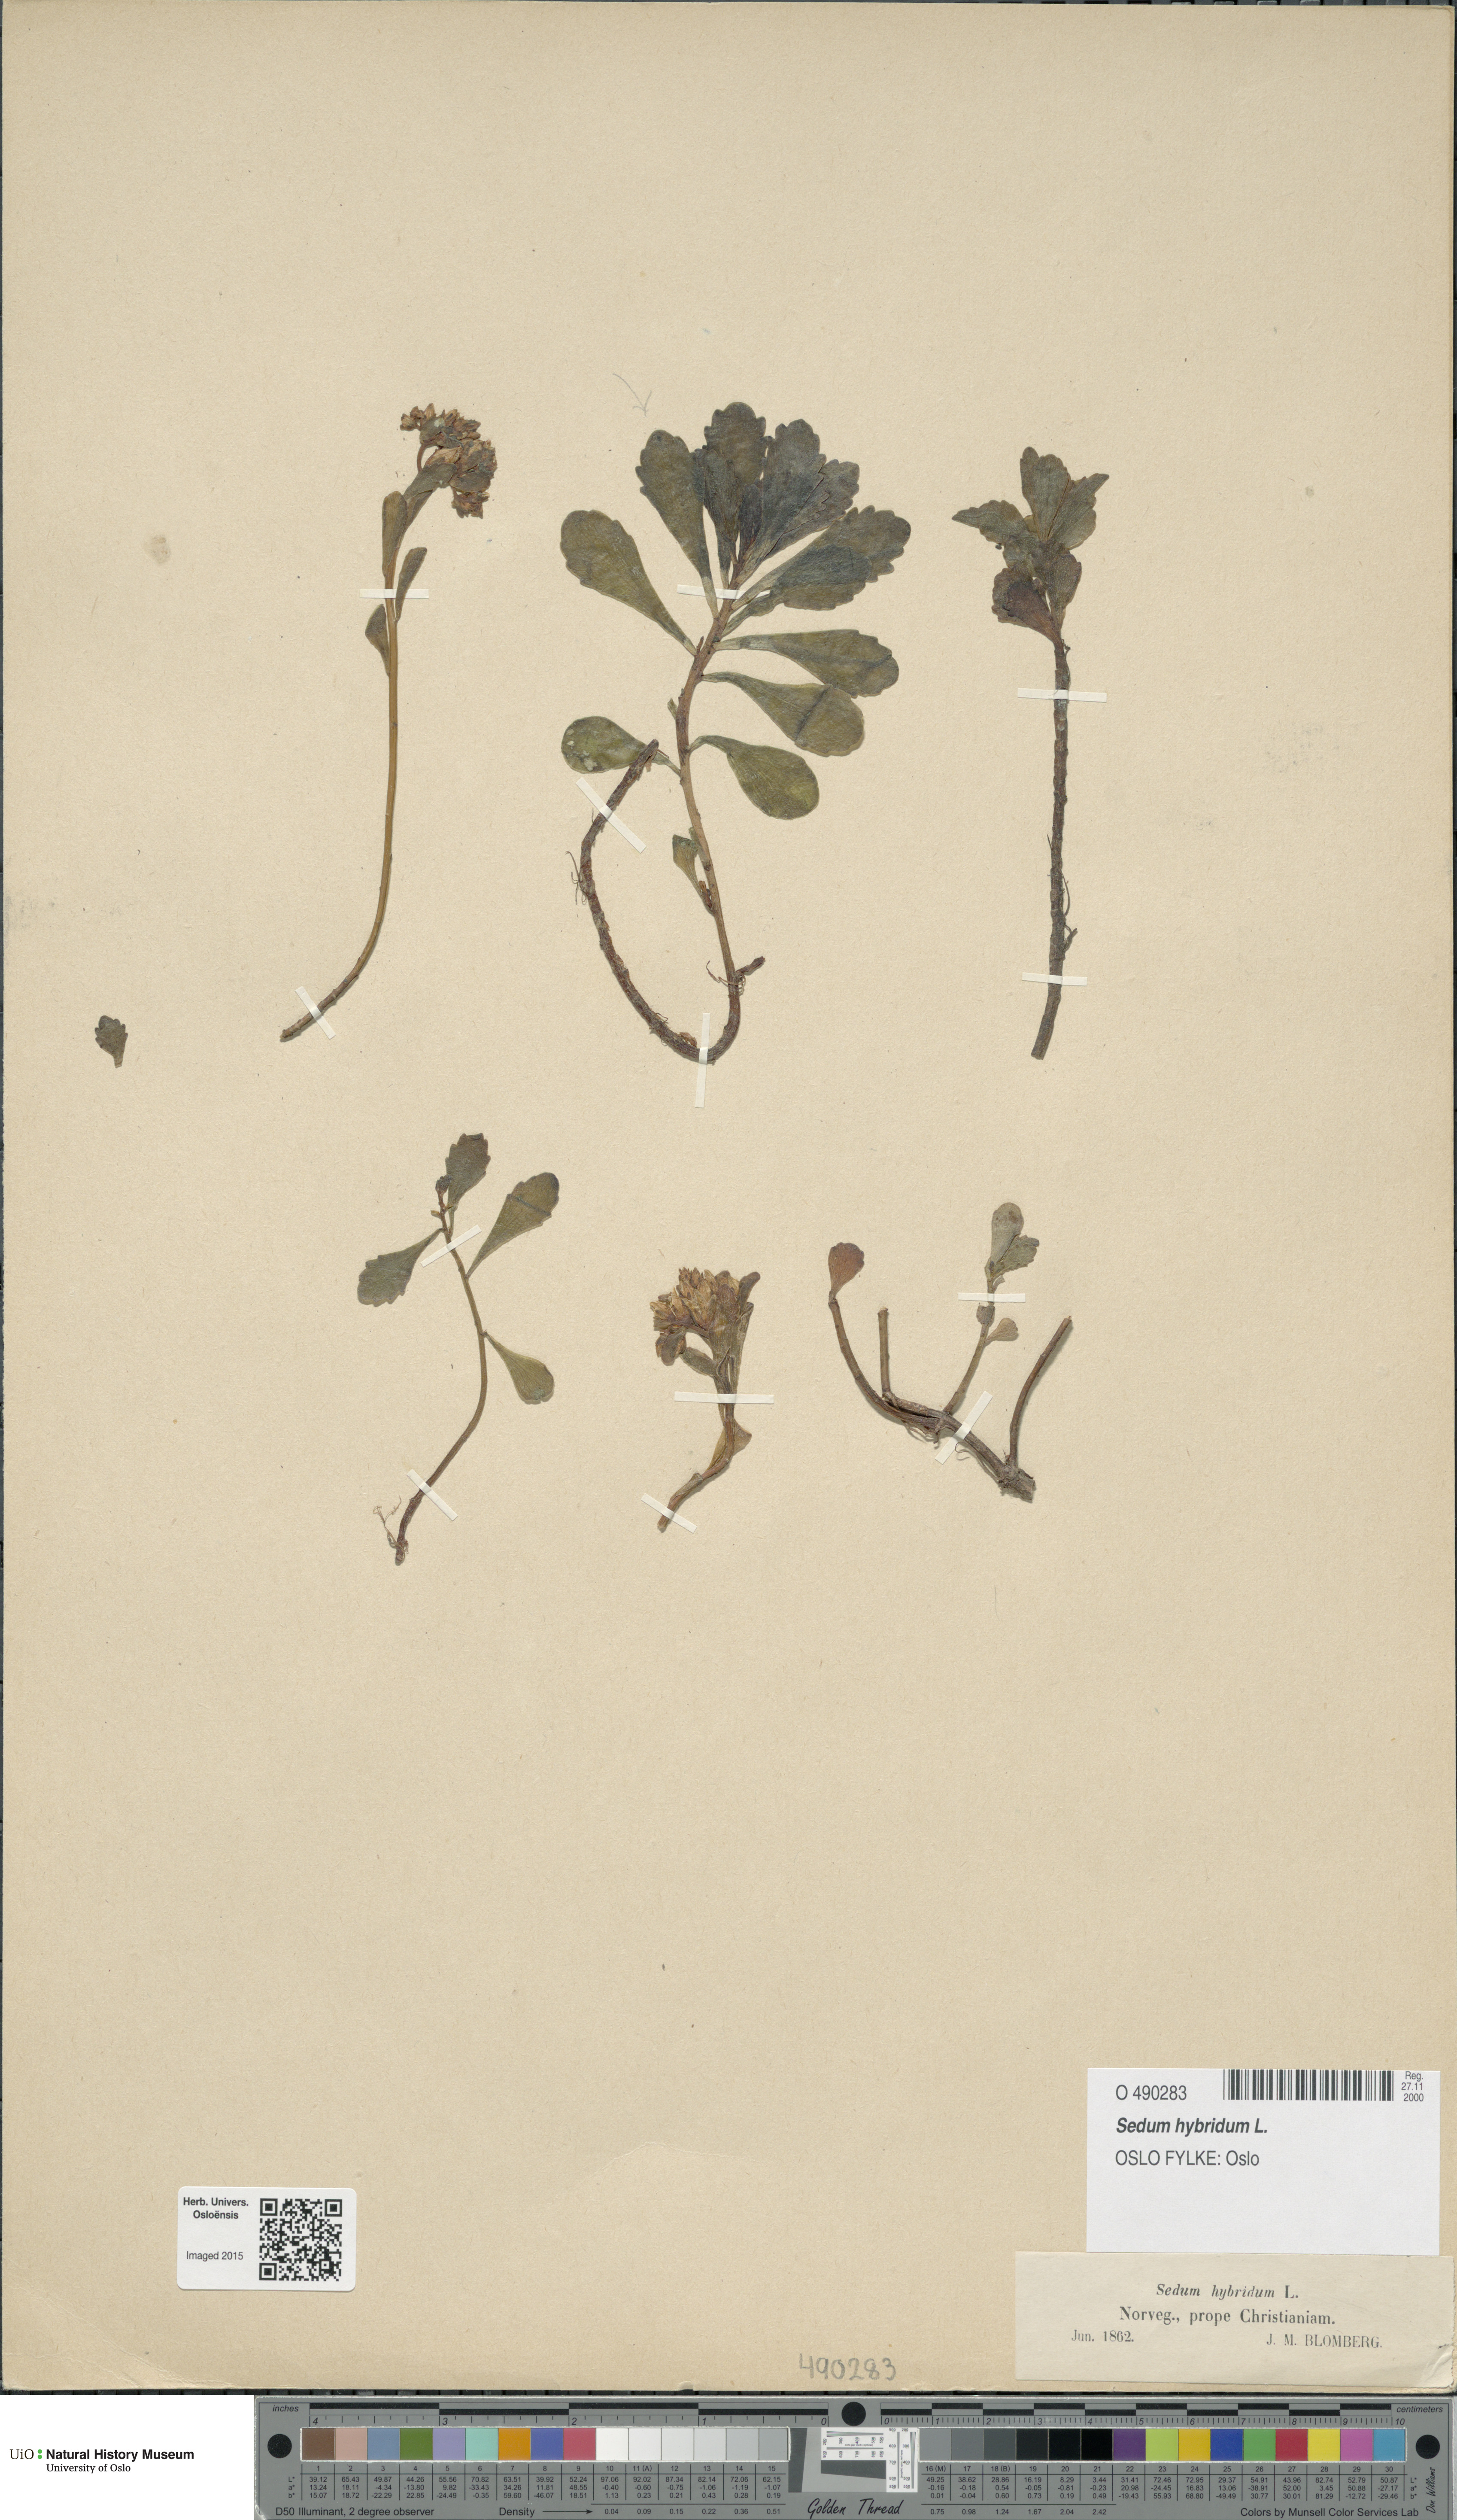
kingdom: Plantae
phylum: Tracheophyta
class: Magnoliopsida
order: Saxifragales
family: Crassulaceae
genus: Phedimus
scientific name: Phedimus hybridus
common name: Hybrid stonecrop
